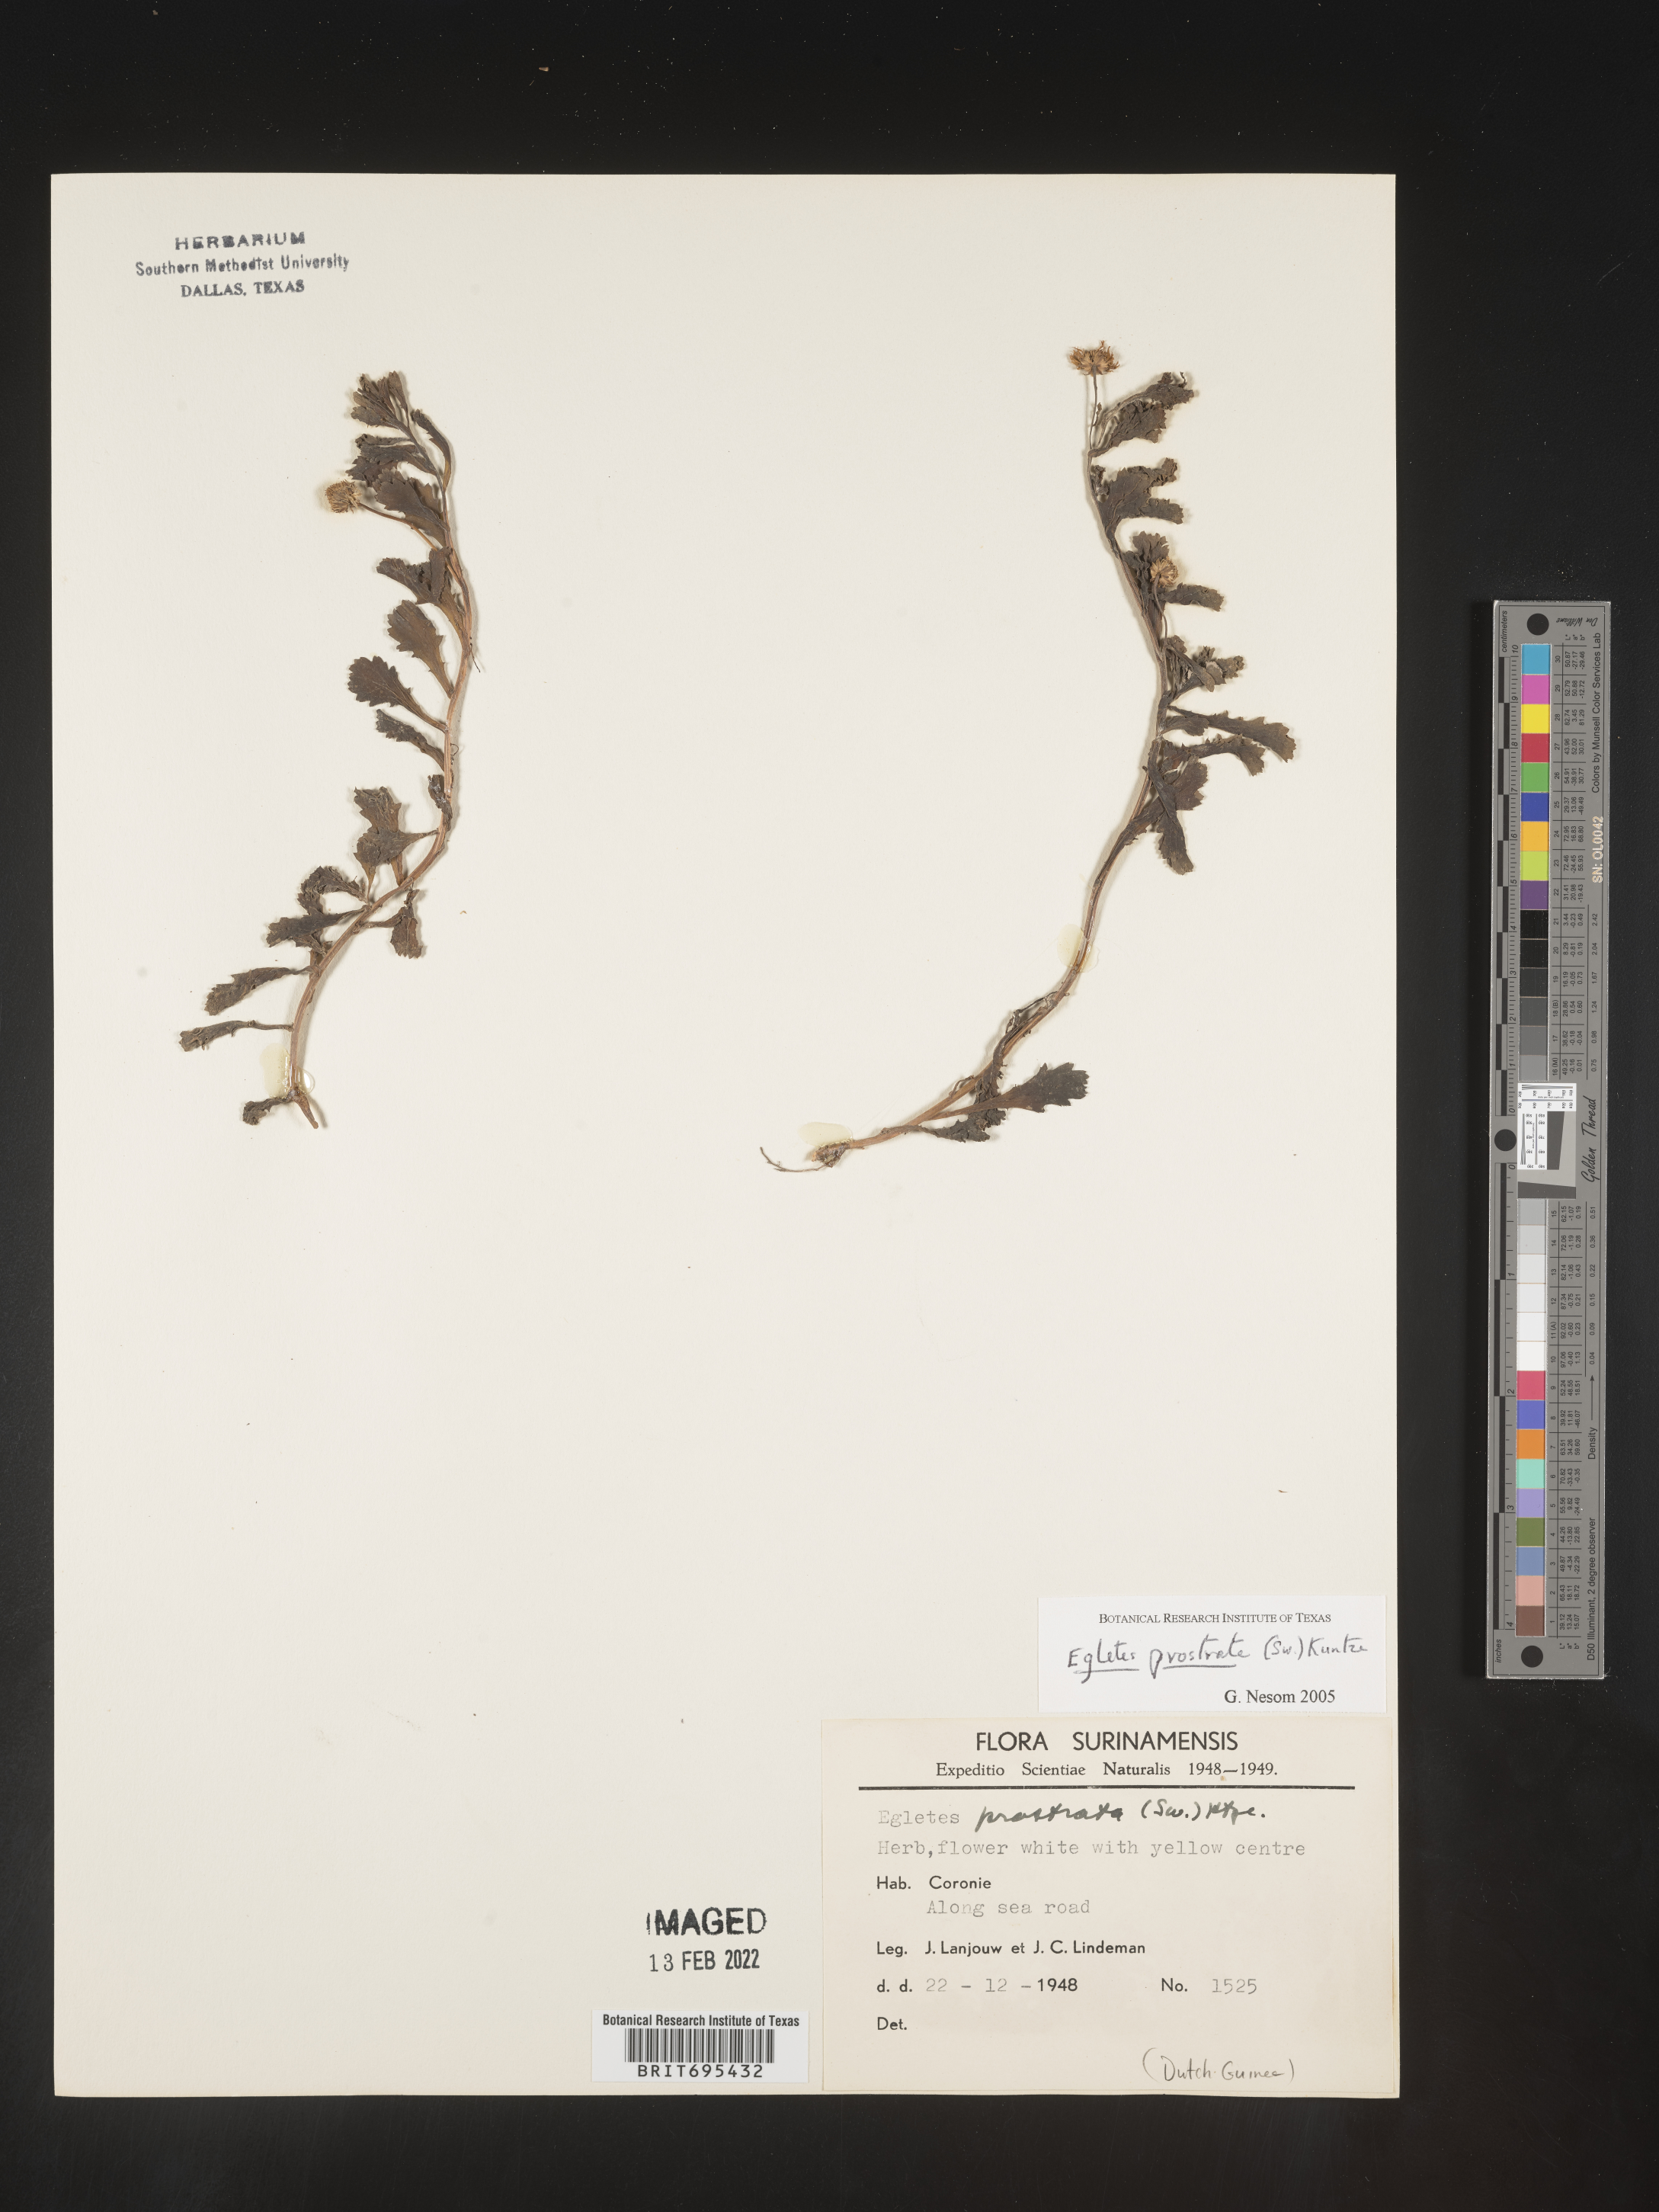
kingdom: Plantae
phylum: Tracheophyta
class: Magnoliopsida
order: Asterales
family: Asteraceae
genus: Egletes
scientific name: Egletes
